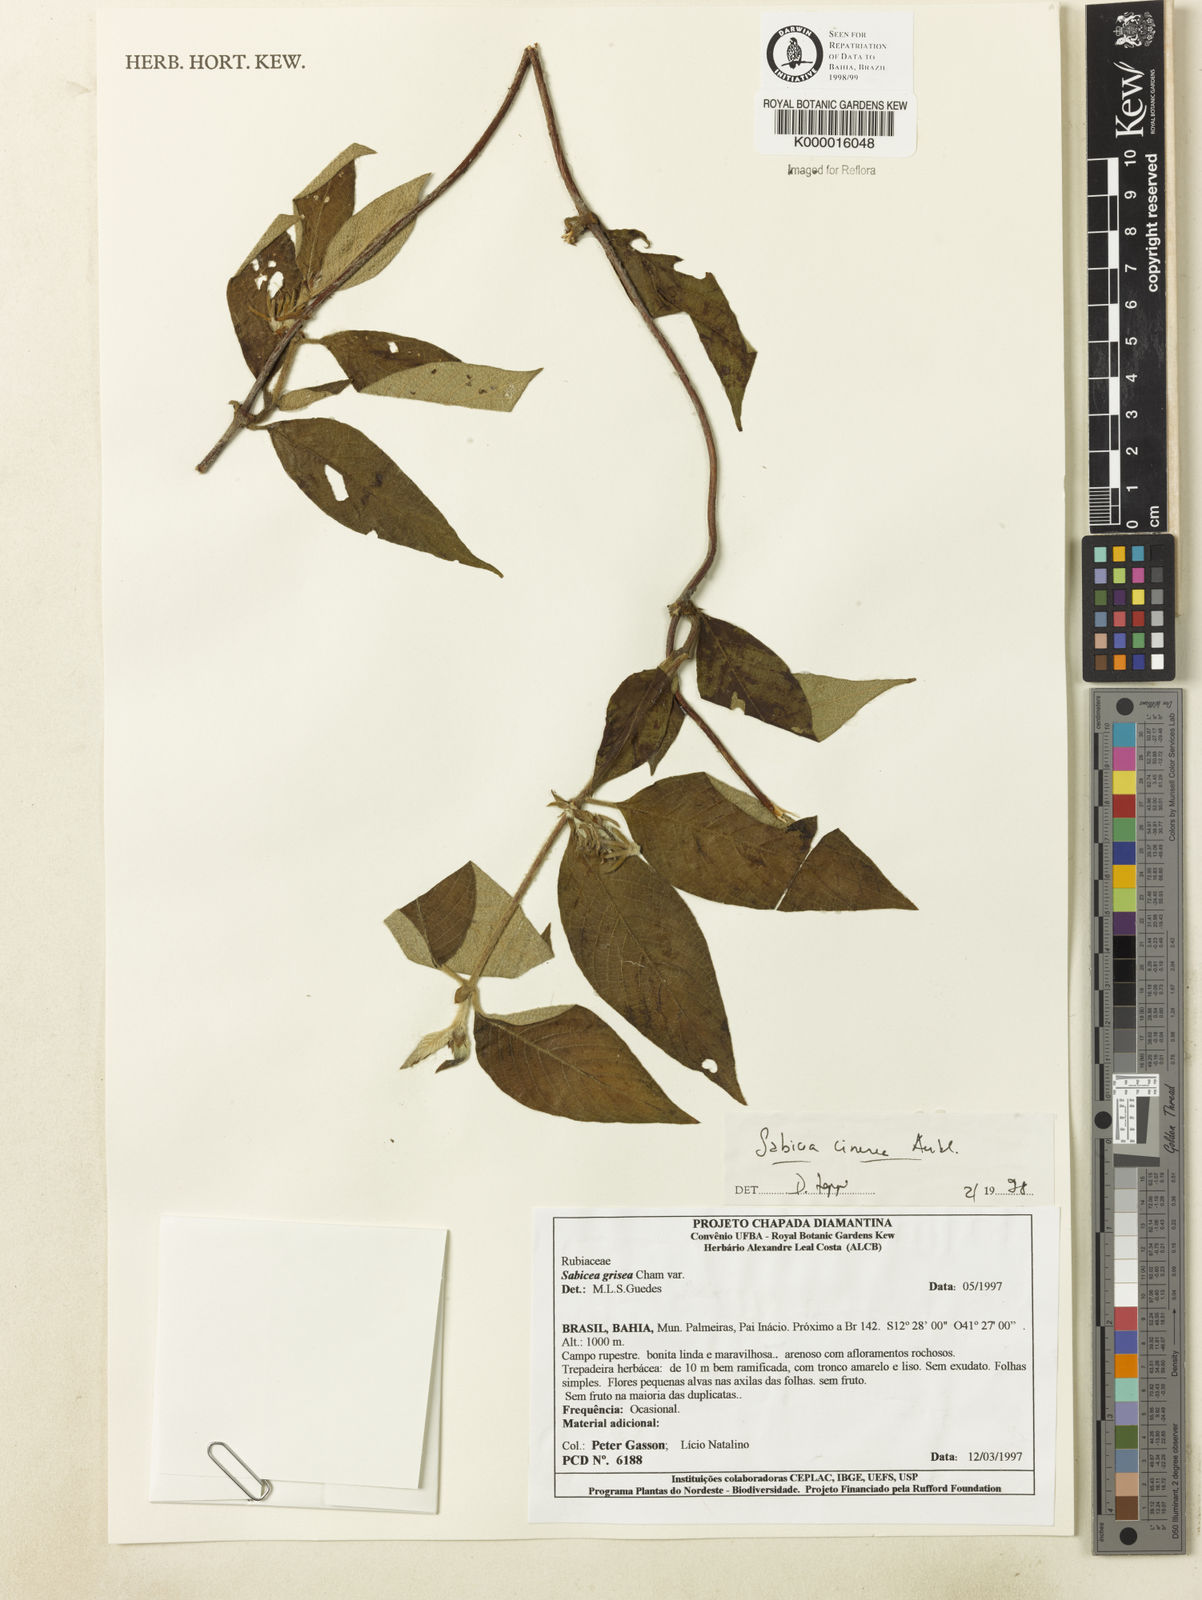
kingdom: Plantae
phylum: Tracheophyta
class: Magnoliopsida
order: Gentianales
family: Rubiaceae
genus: Sabicea
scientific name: Sabicea cinerea
